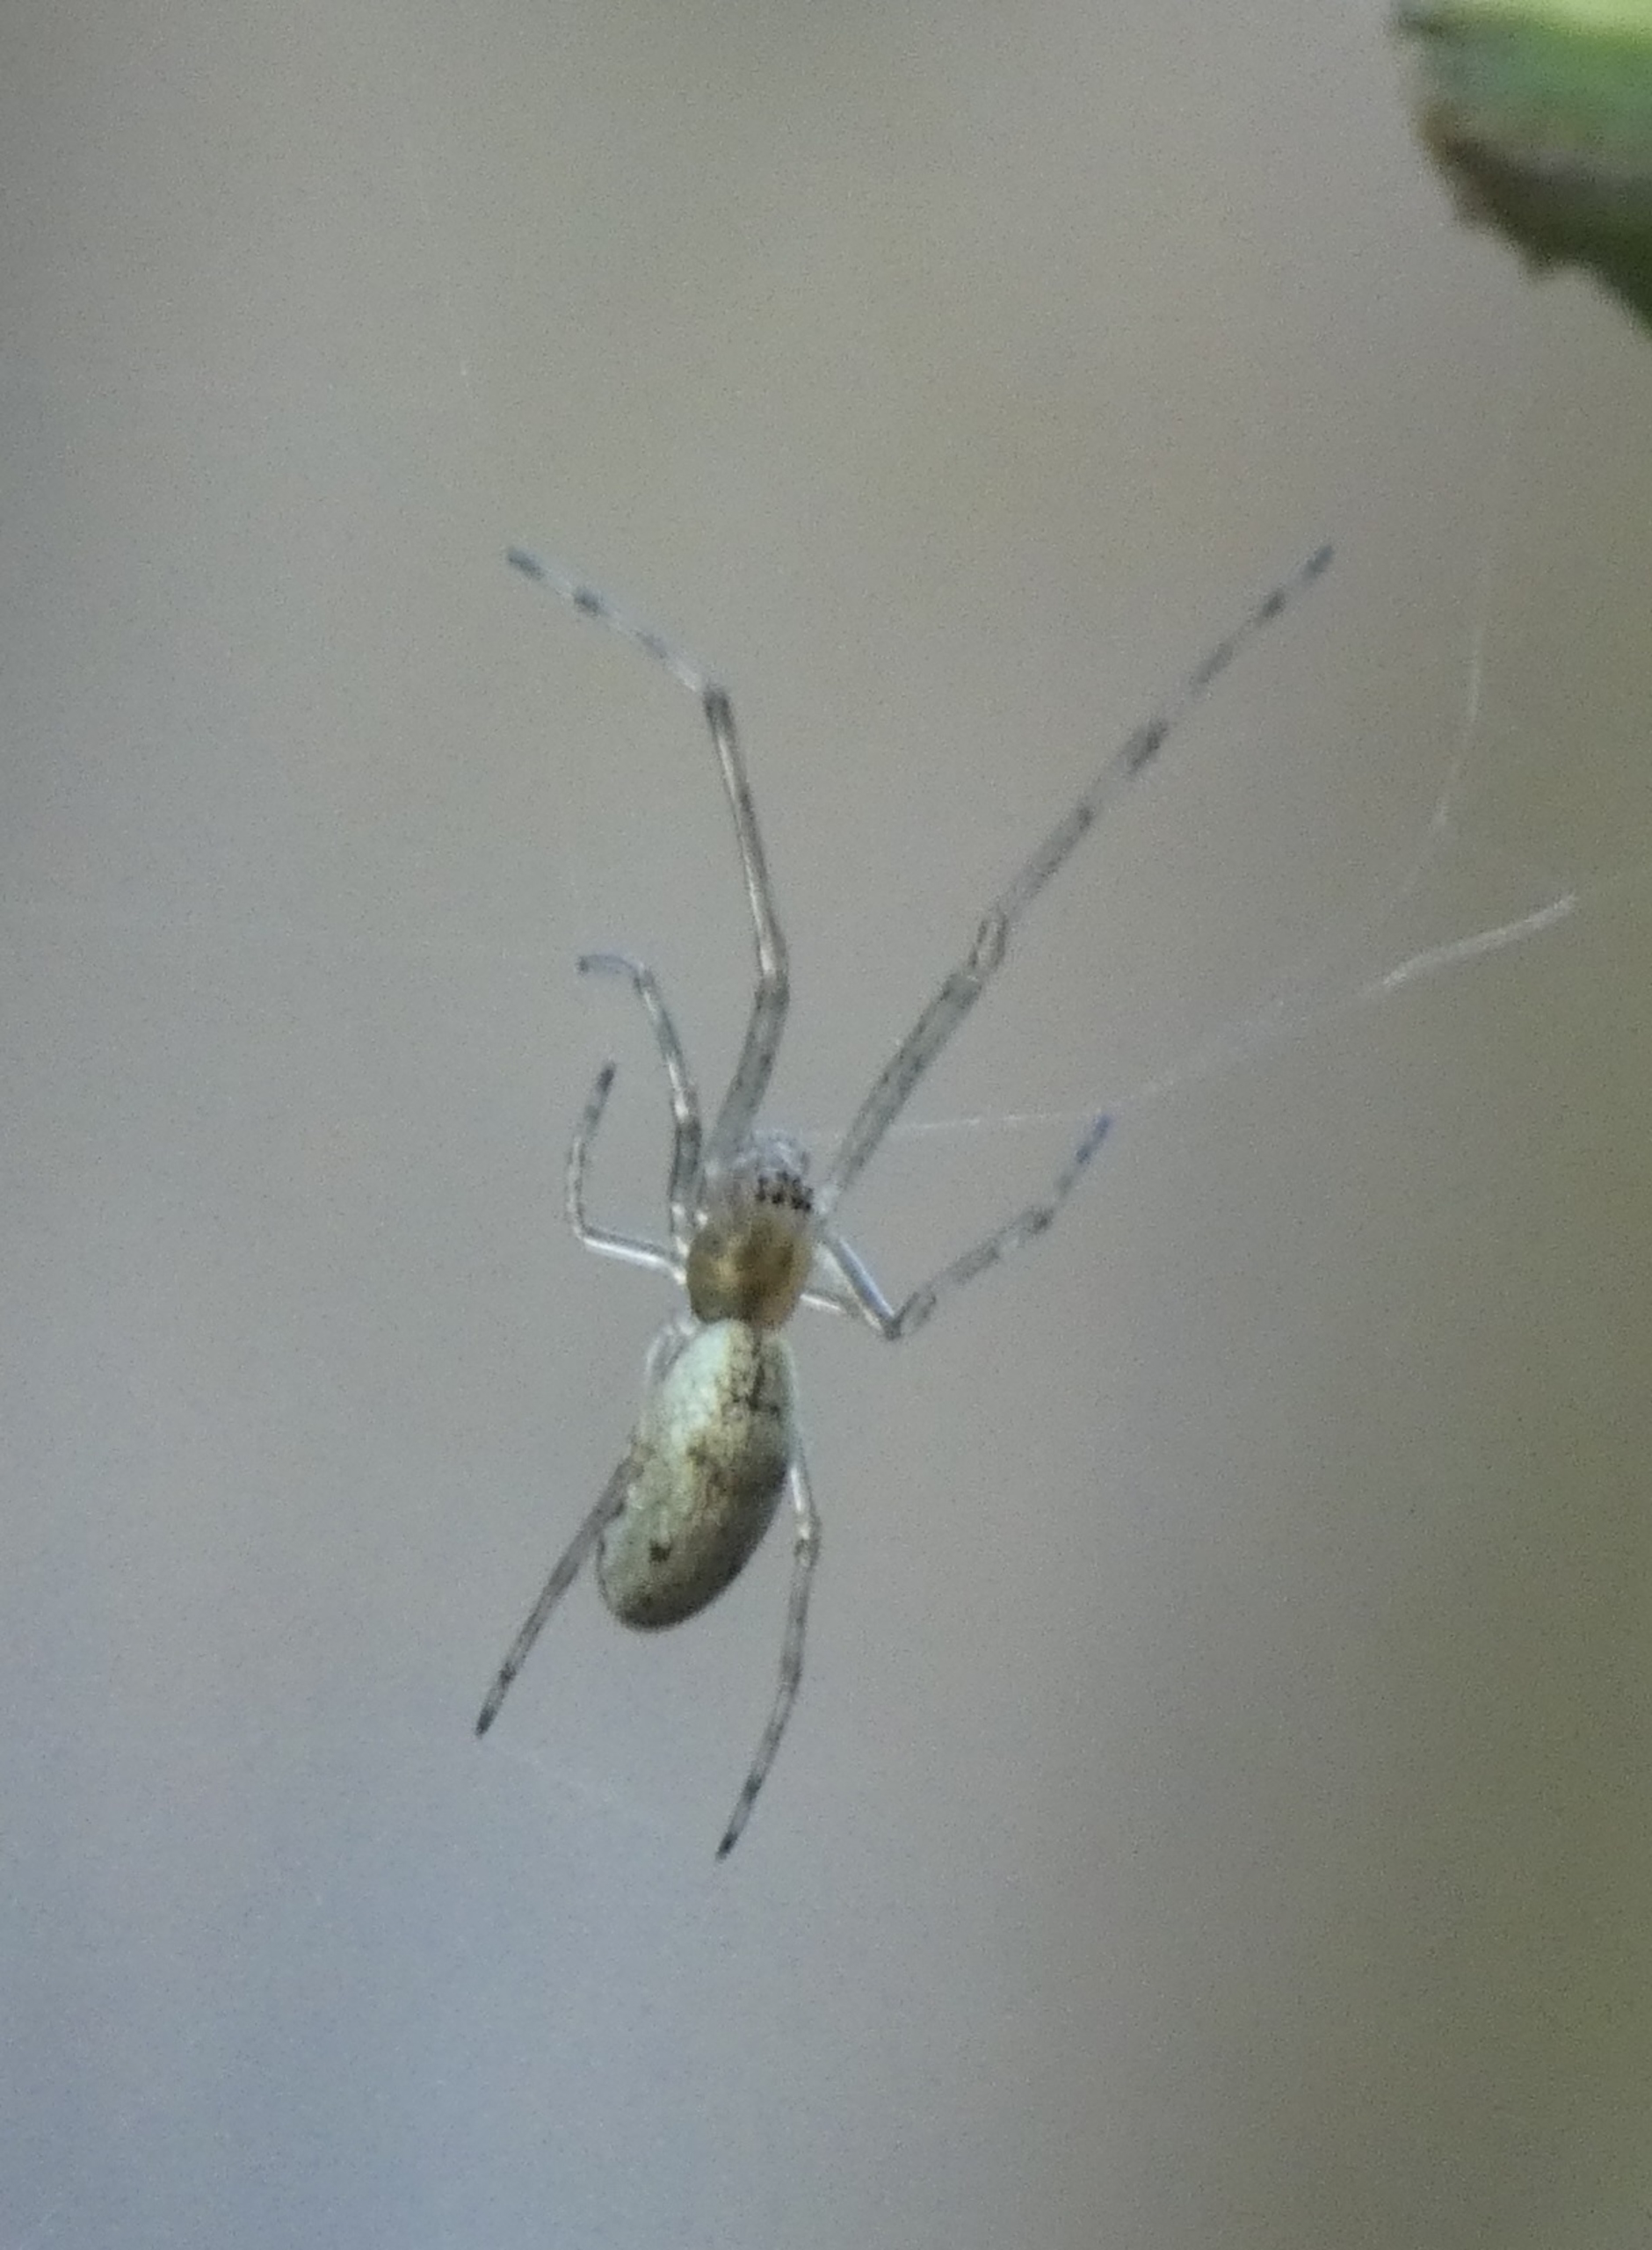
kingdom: Animalia
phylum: Arthropoda
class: Arachnida
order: Araneae
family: Tetragnathidae
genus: Tetragnatha
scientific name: Tetragnatha
